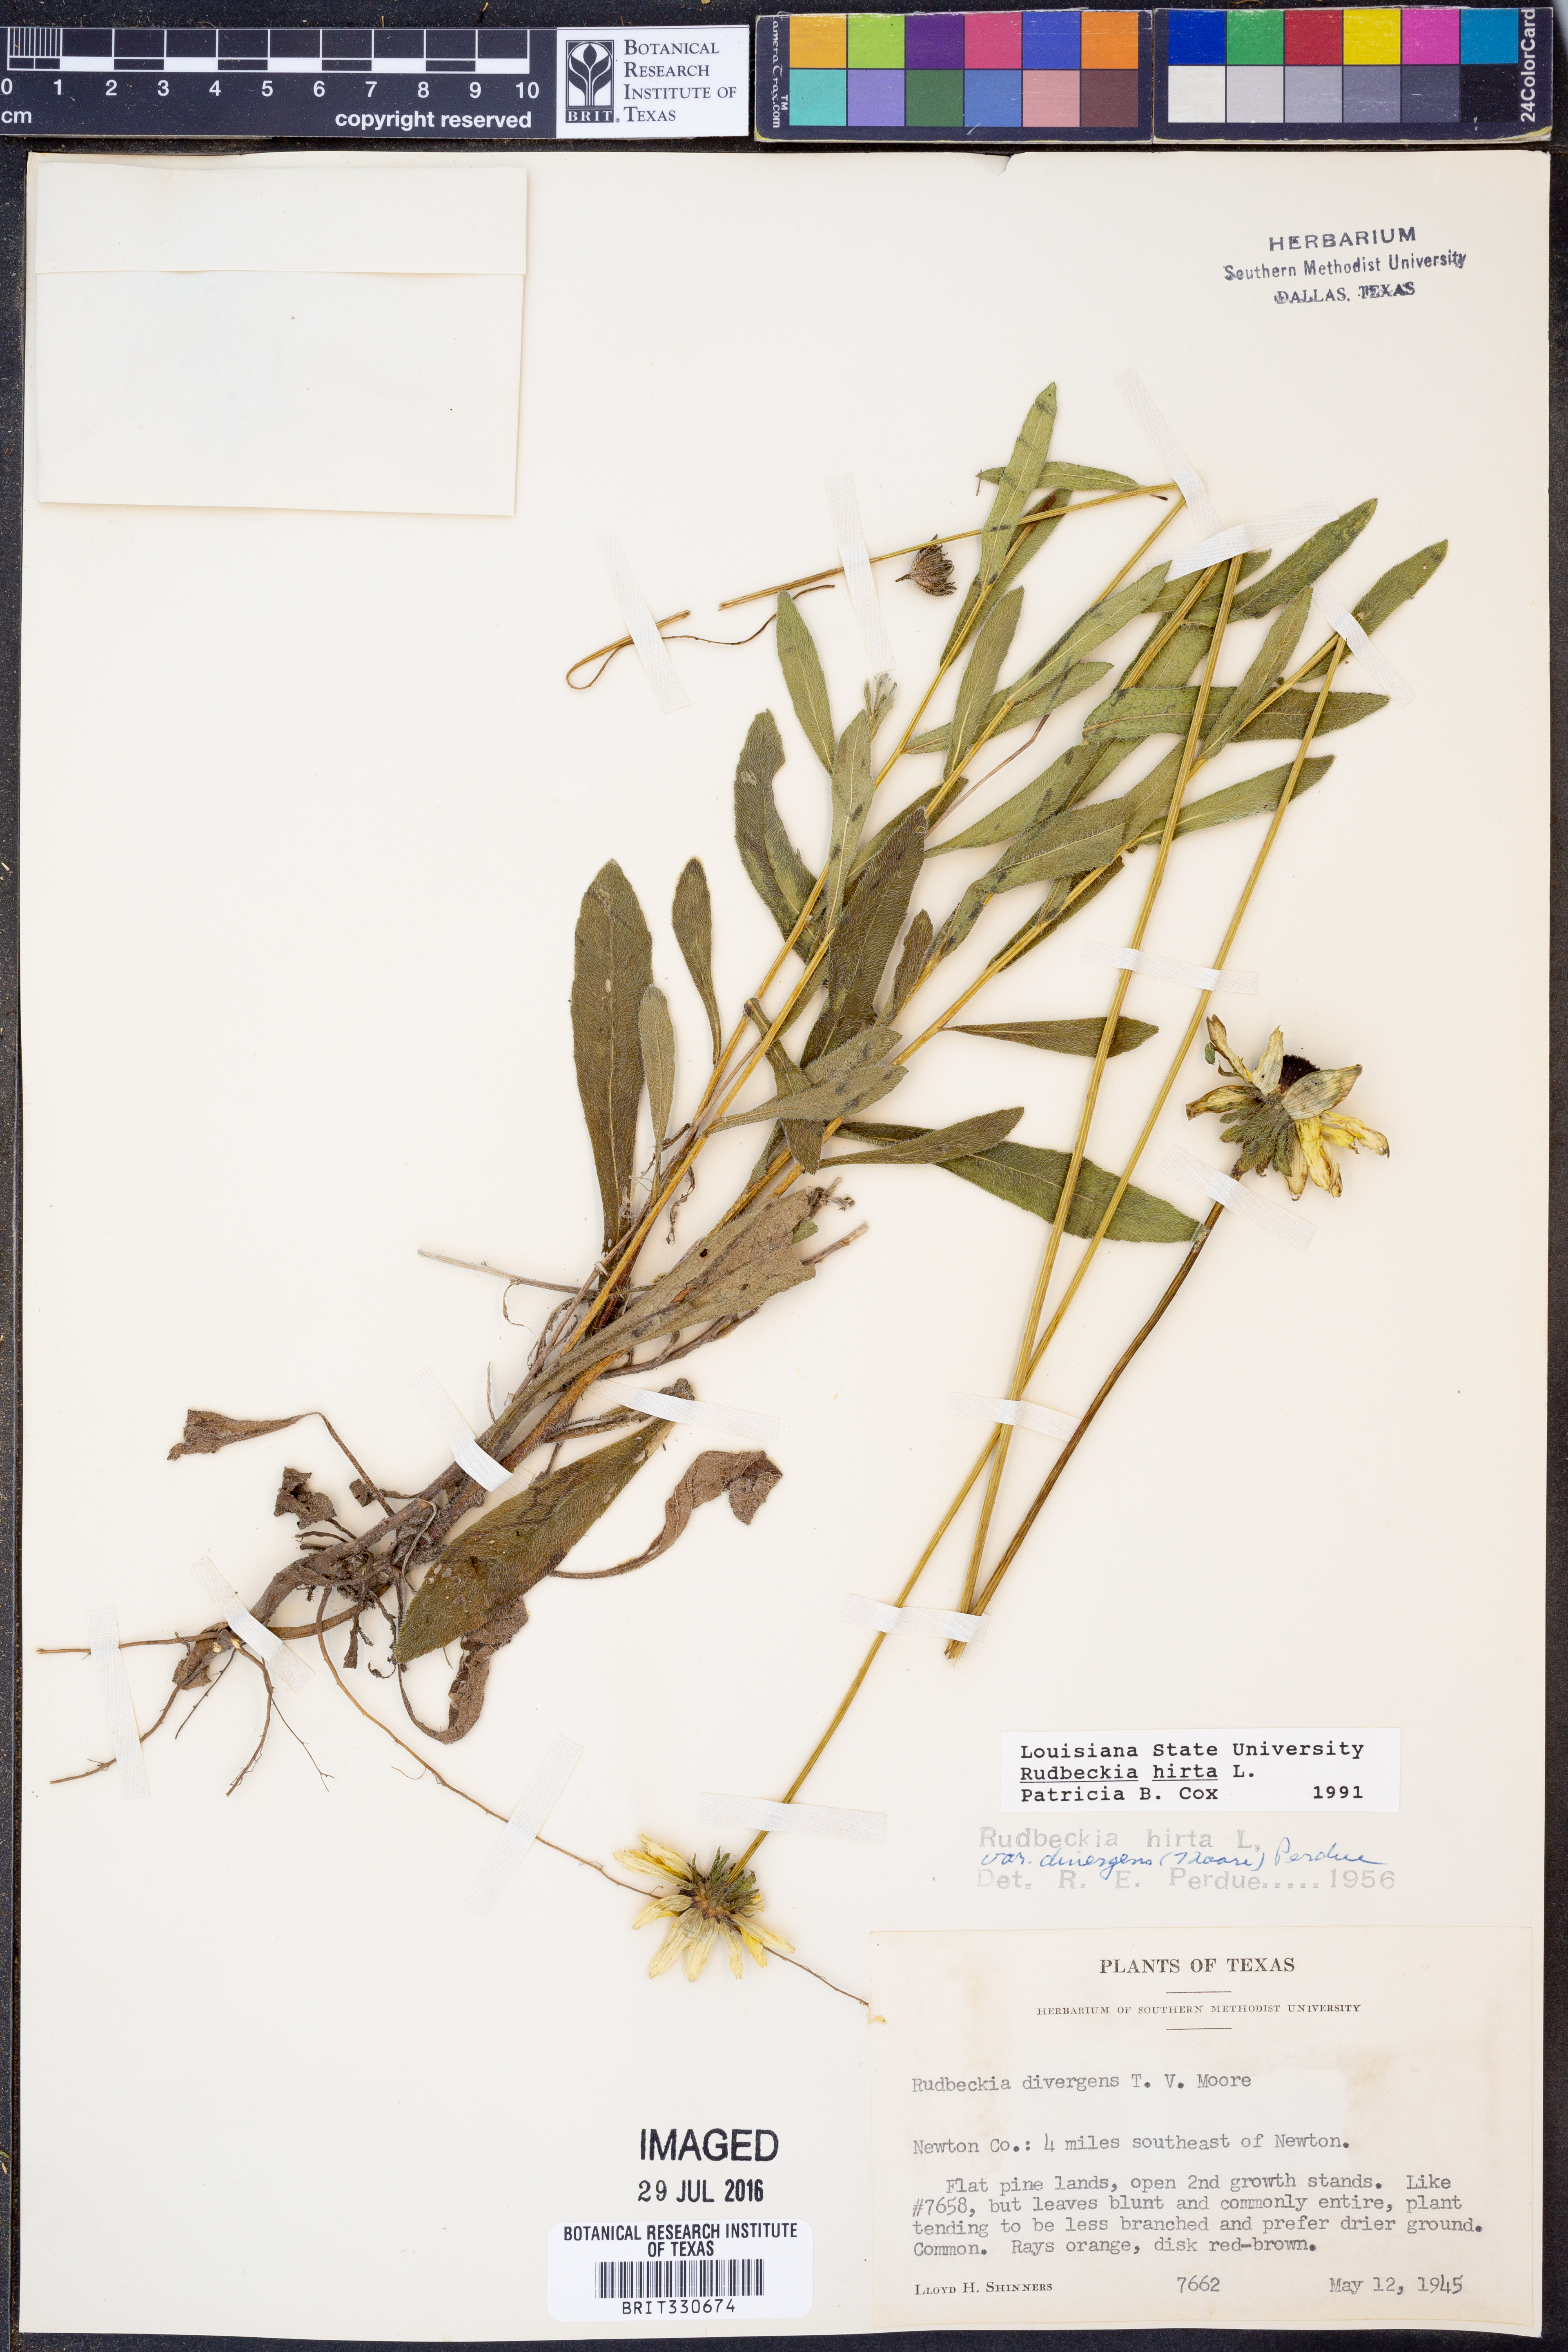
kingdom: Plantae
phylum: Tracheophyta
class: Magnoliopsida
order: Asterales
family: Asteraceae
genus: Rudbeckia
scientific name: Rudbeckia hirta
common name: Black-eyed-susan
